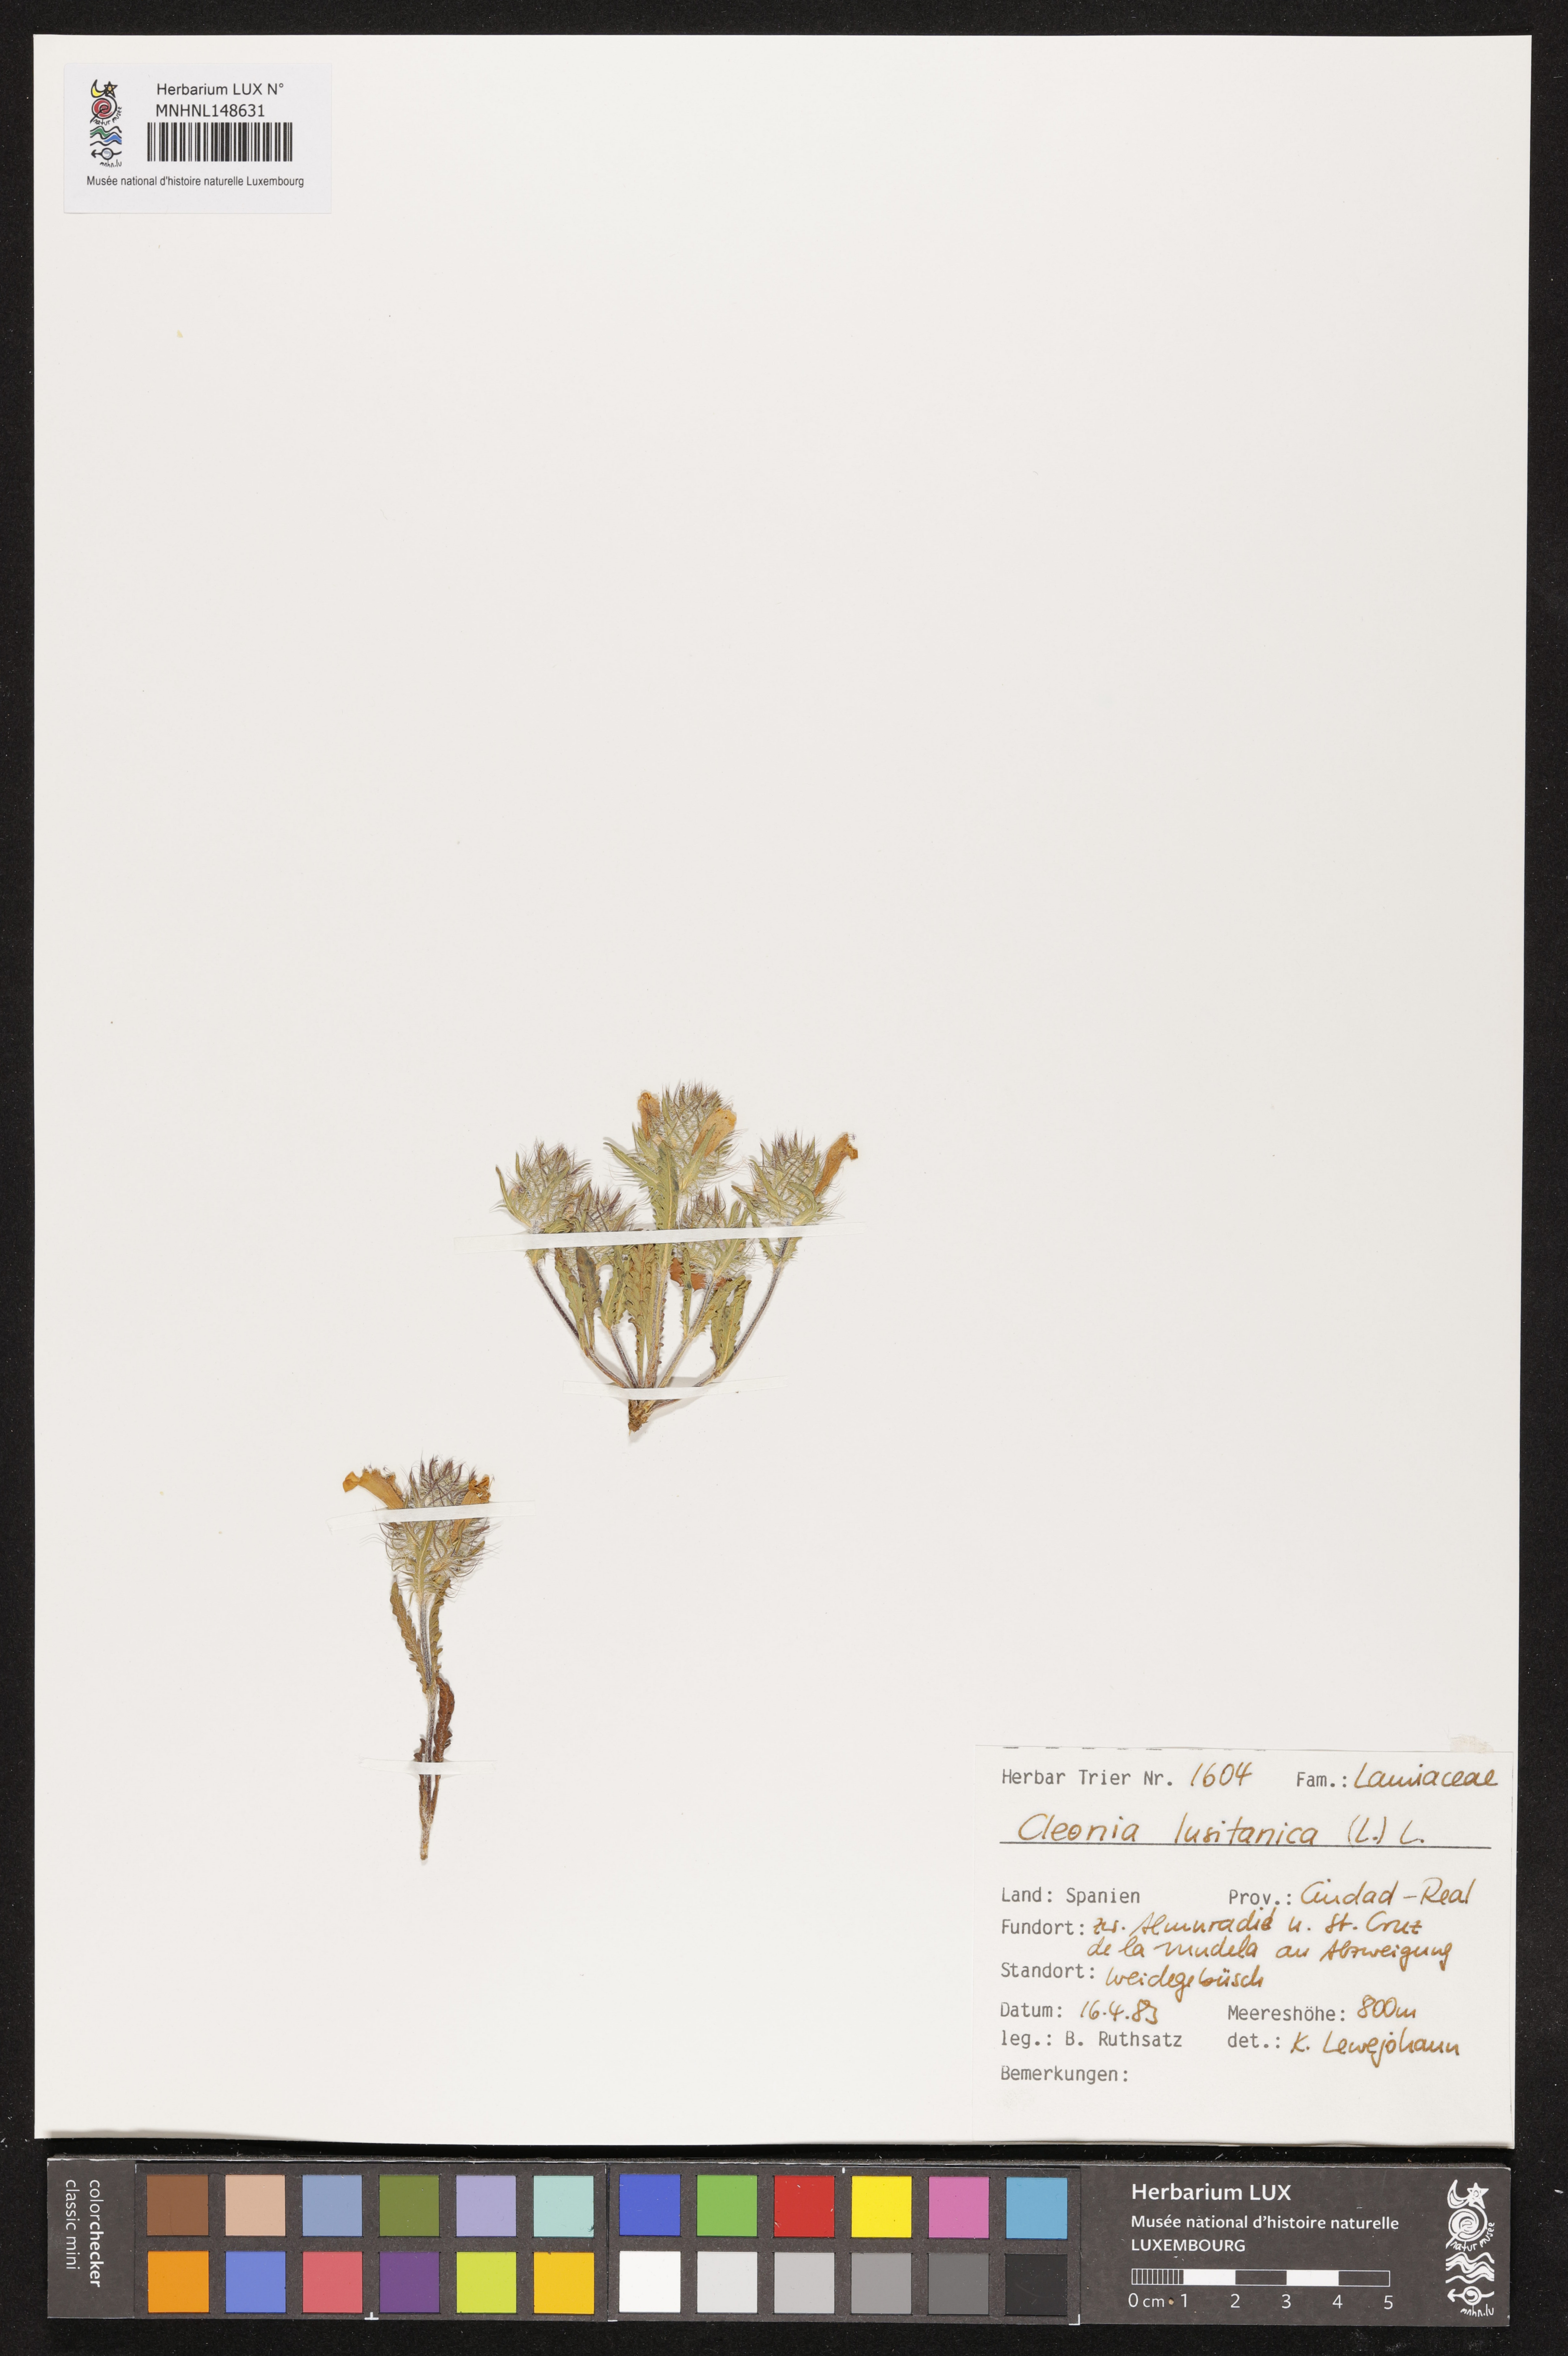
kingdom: Plantae
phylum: Tracheophyta
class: Magnoliopsida
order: Lamiales
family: Lamiaceae
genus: Cleonia
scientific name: Cleonia lusitanica
